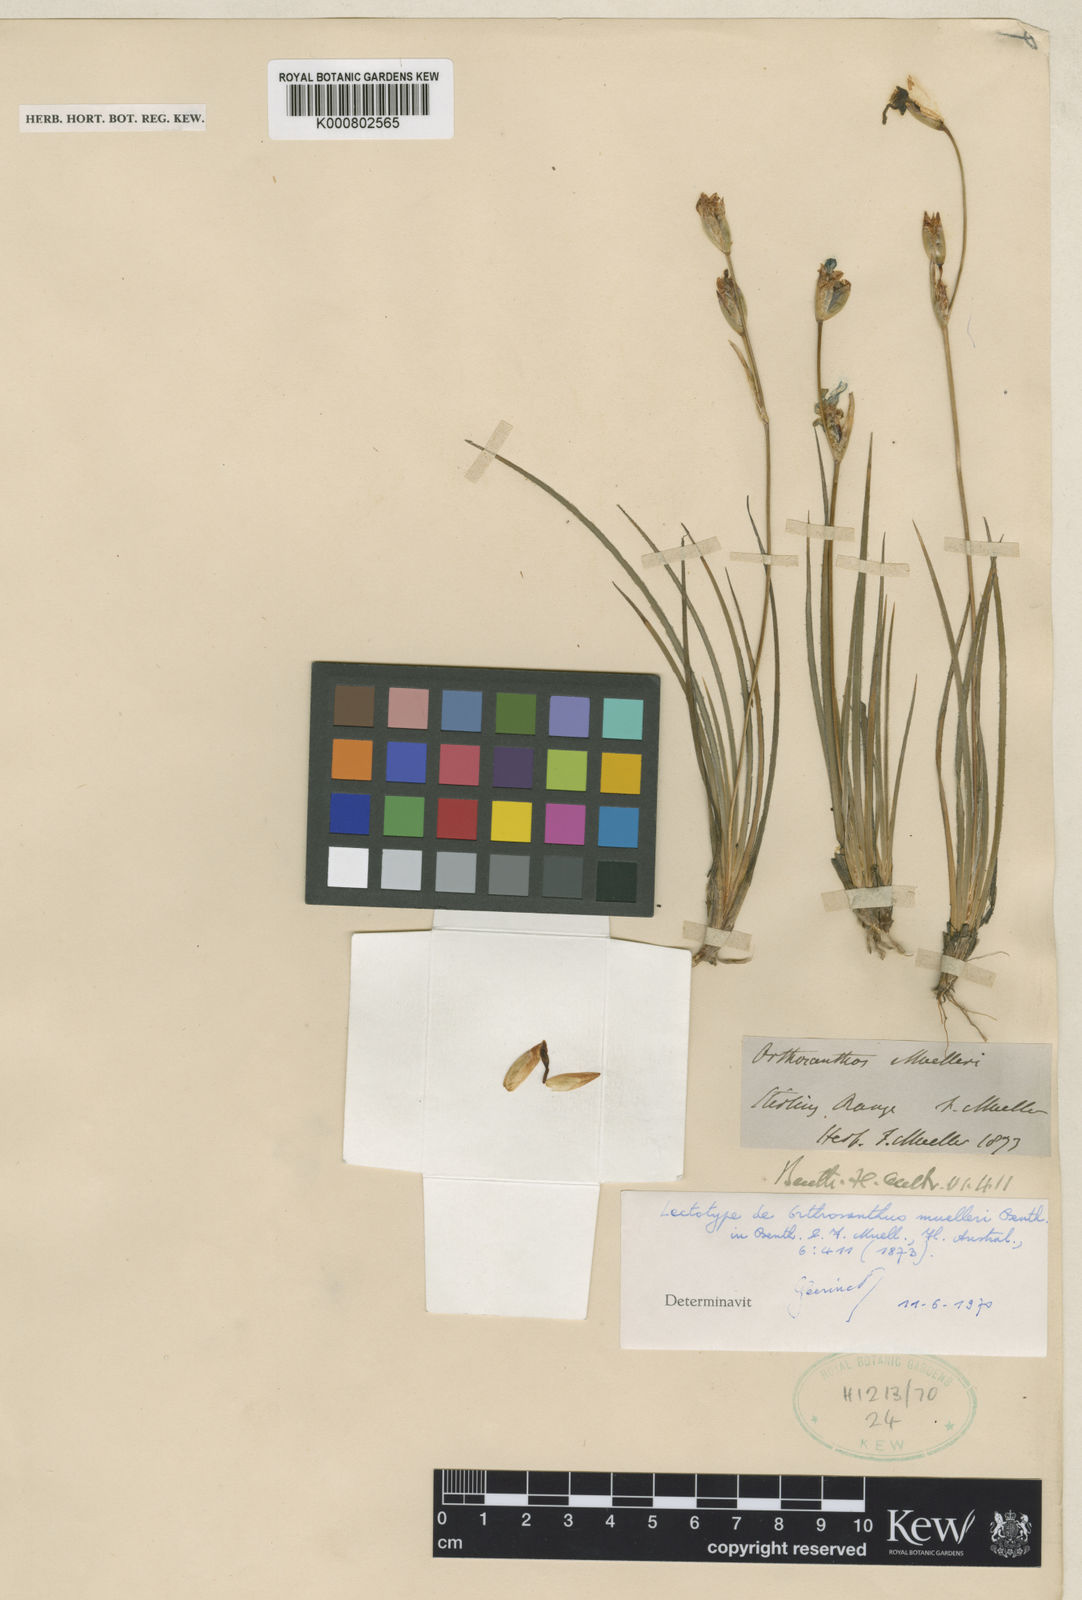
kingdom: Plantae
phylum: Tracheophyta
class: Liliopsida
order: Asparagales
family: Iridaceae
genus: Orthrosanthus
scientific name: Orthrosanthus muelleri
